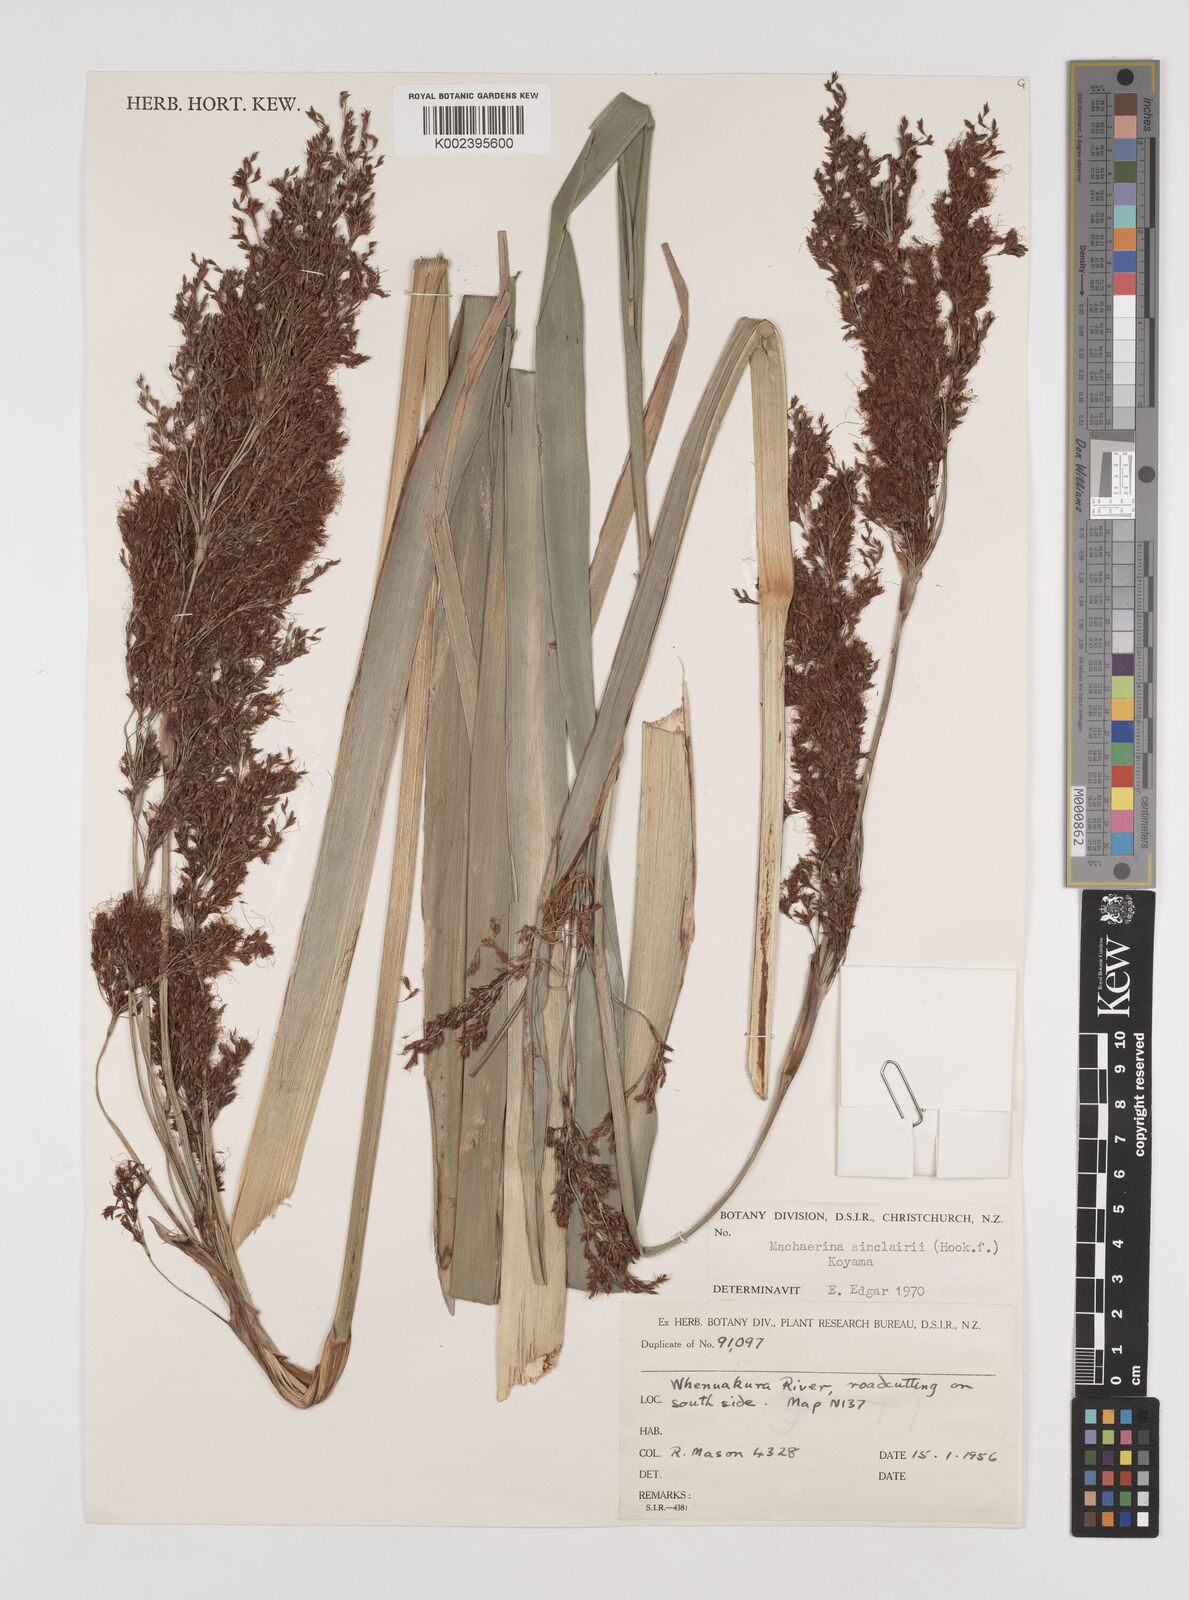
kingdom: Plantae
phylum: Tracheophyta
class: Liliopsida
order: Poales
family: Cyperaceae
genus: Machaerina
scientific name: Machaerina sinclairii
